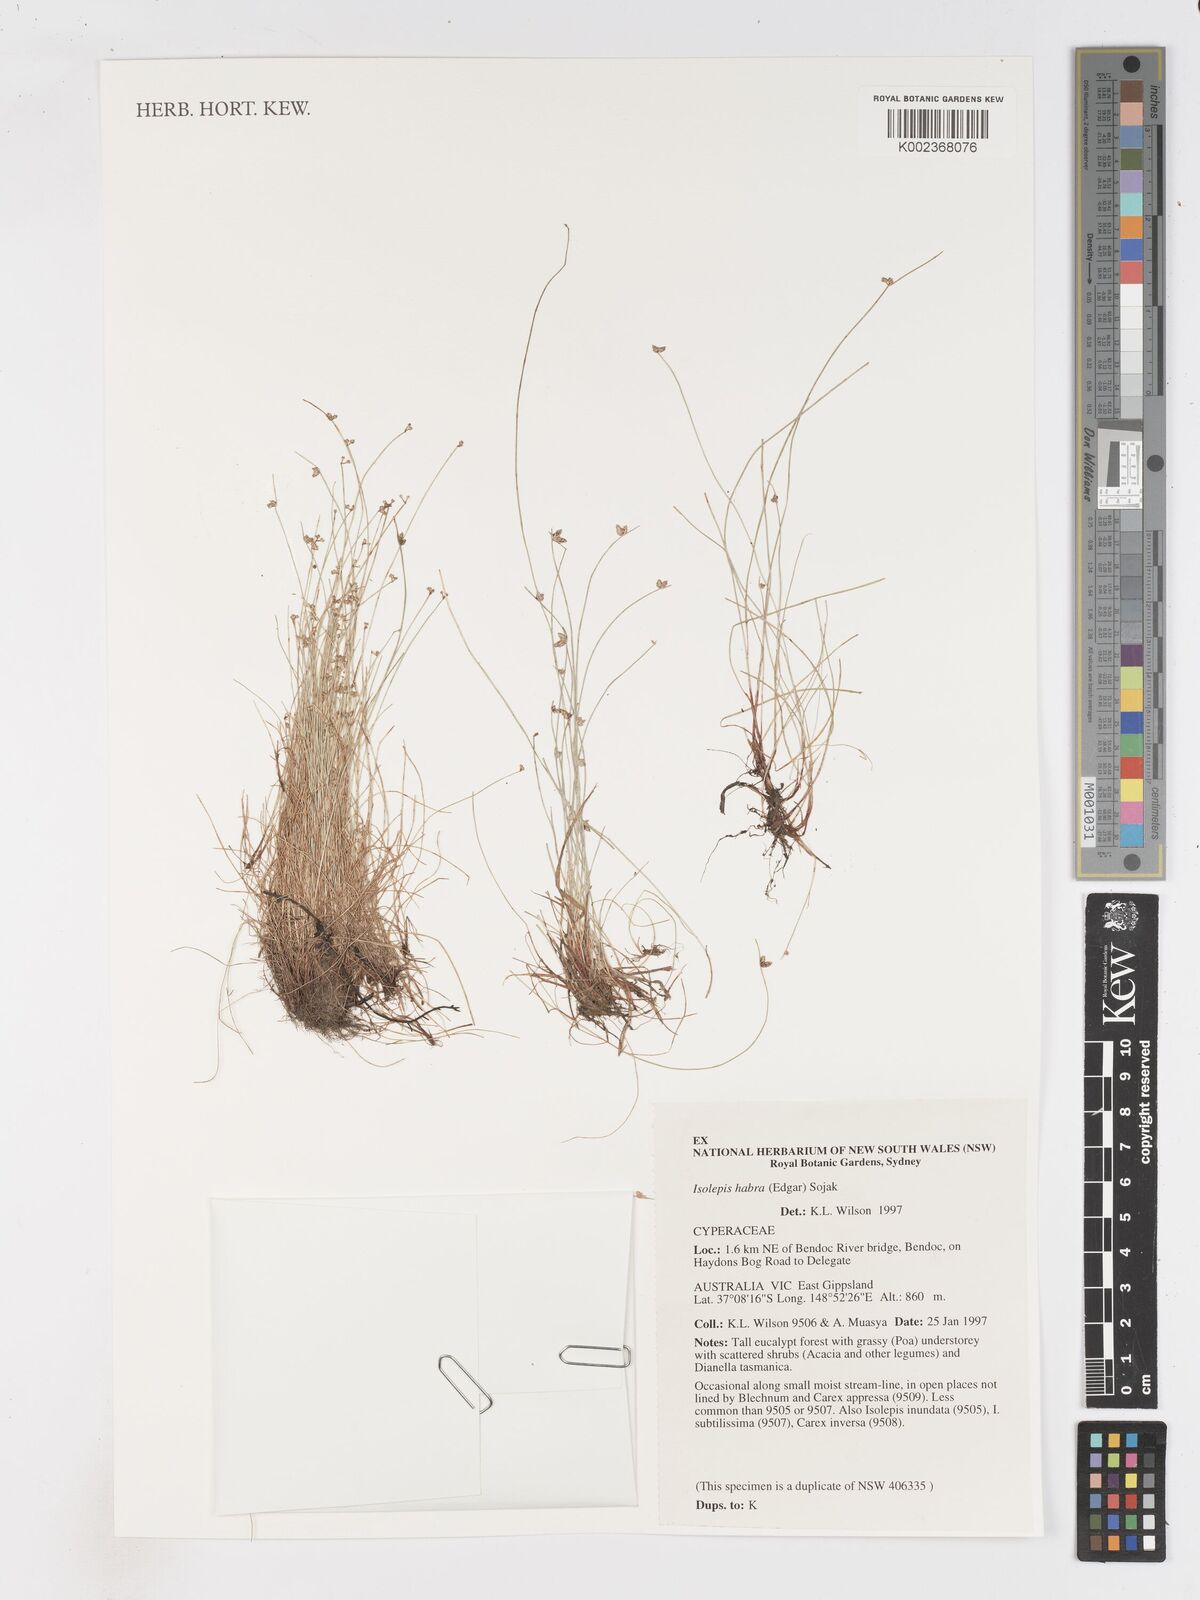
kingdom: Plantae
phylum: Tracheophyta
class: Liliopsida
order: Poales
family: Cyperaceae
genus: Isolepis
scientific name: Isolepis habra
